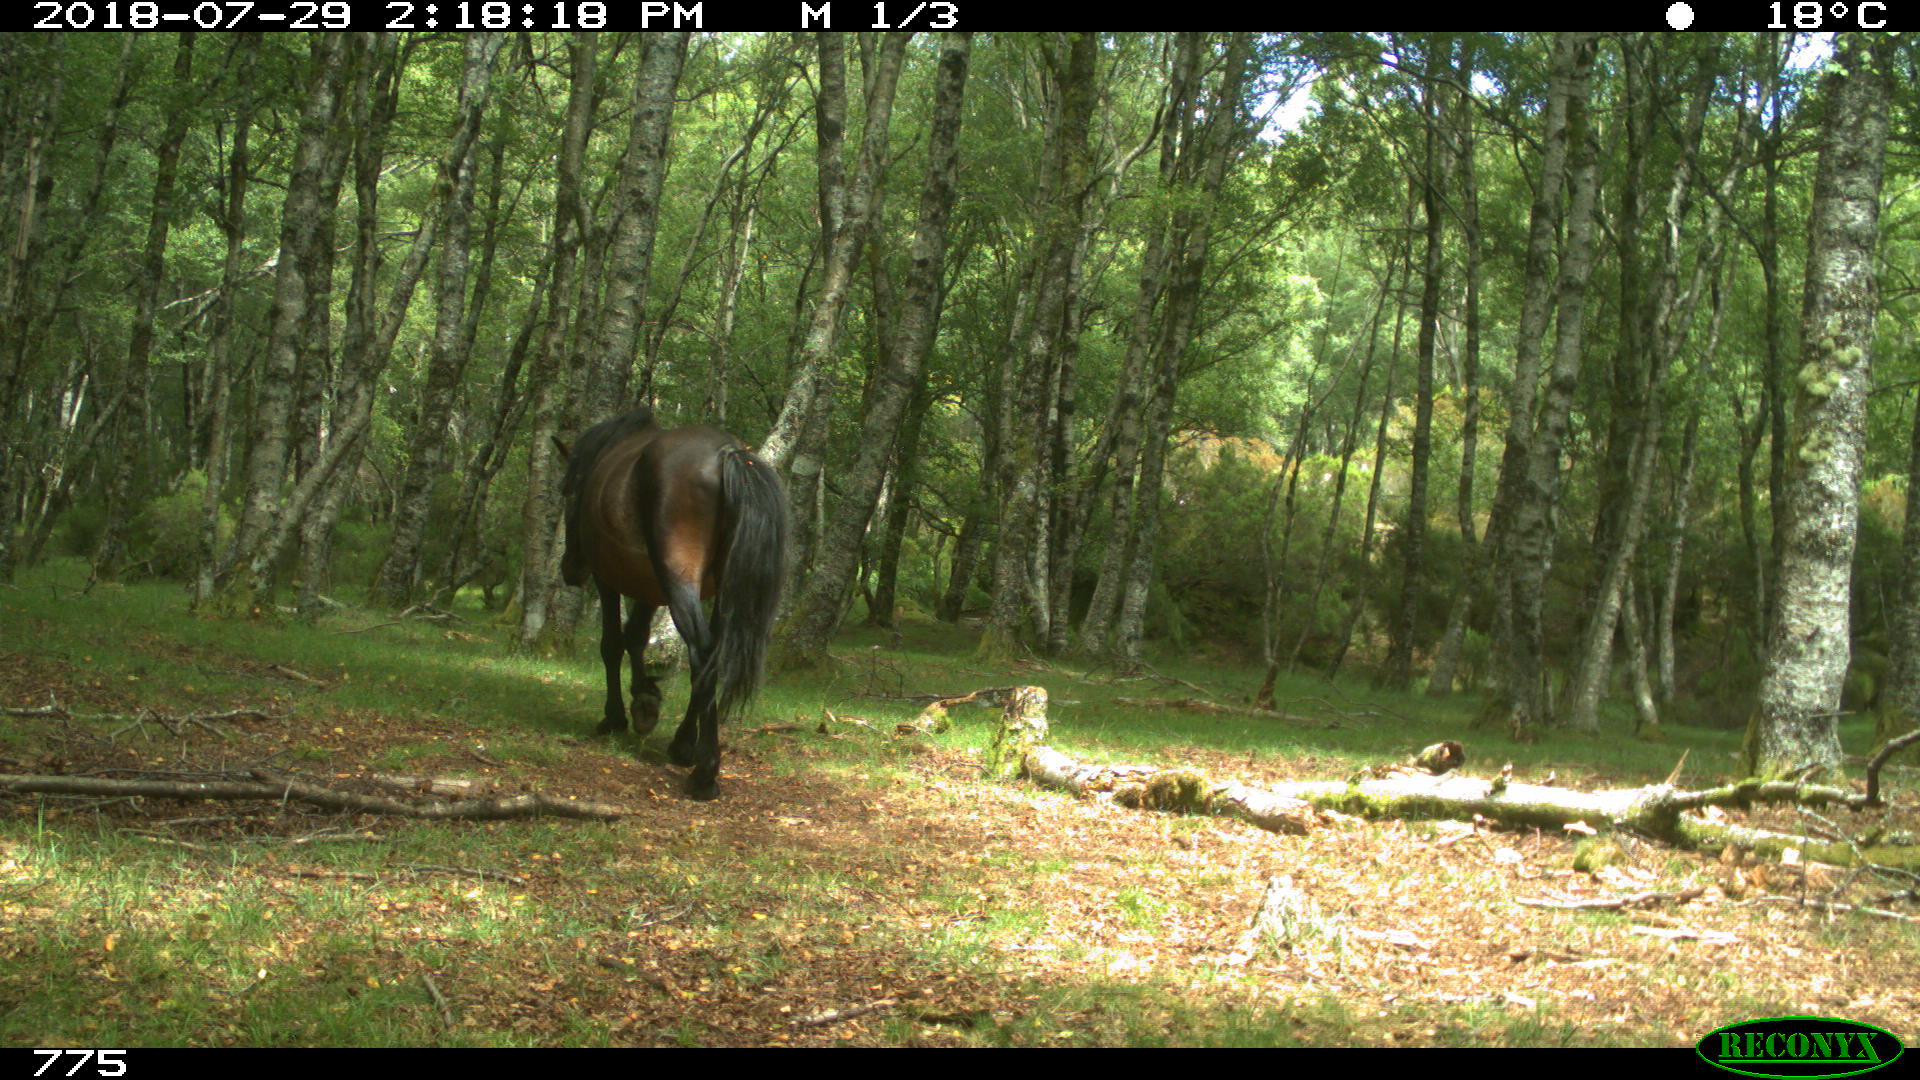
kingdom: Animalia
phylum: Chordata
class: Mammalia
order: Perissodactyla
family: Equidae
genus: Equus
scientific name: Equus caballus
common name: Horse
